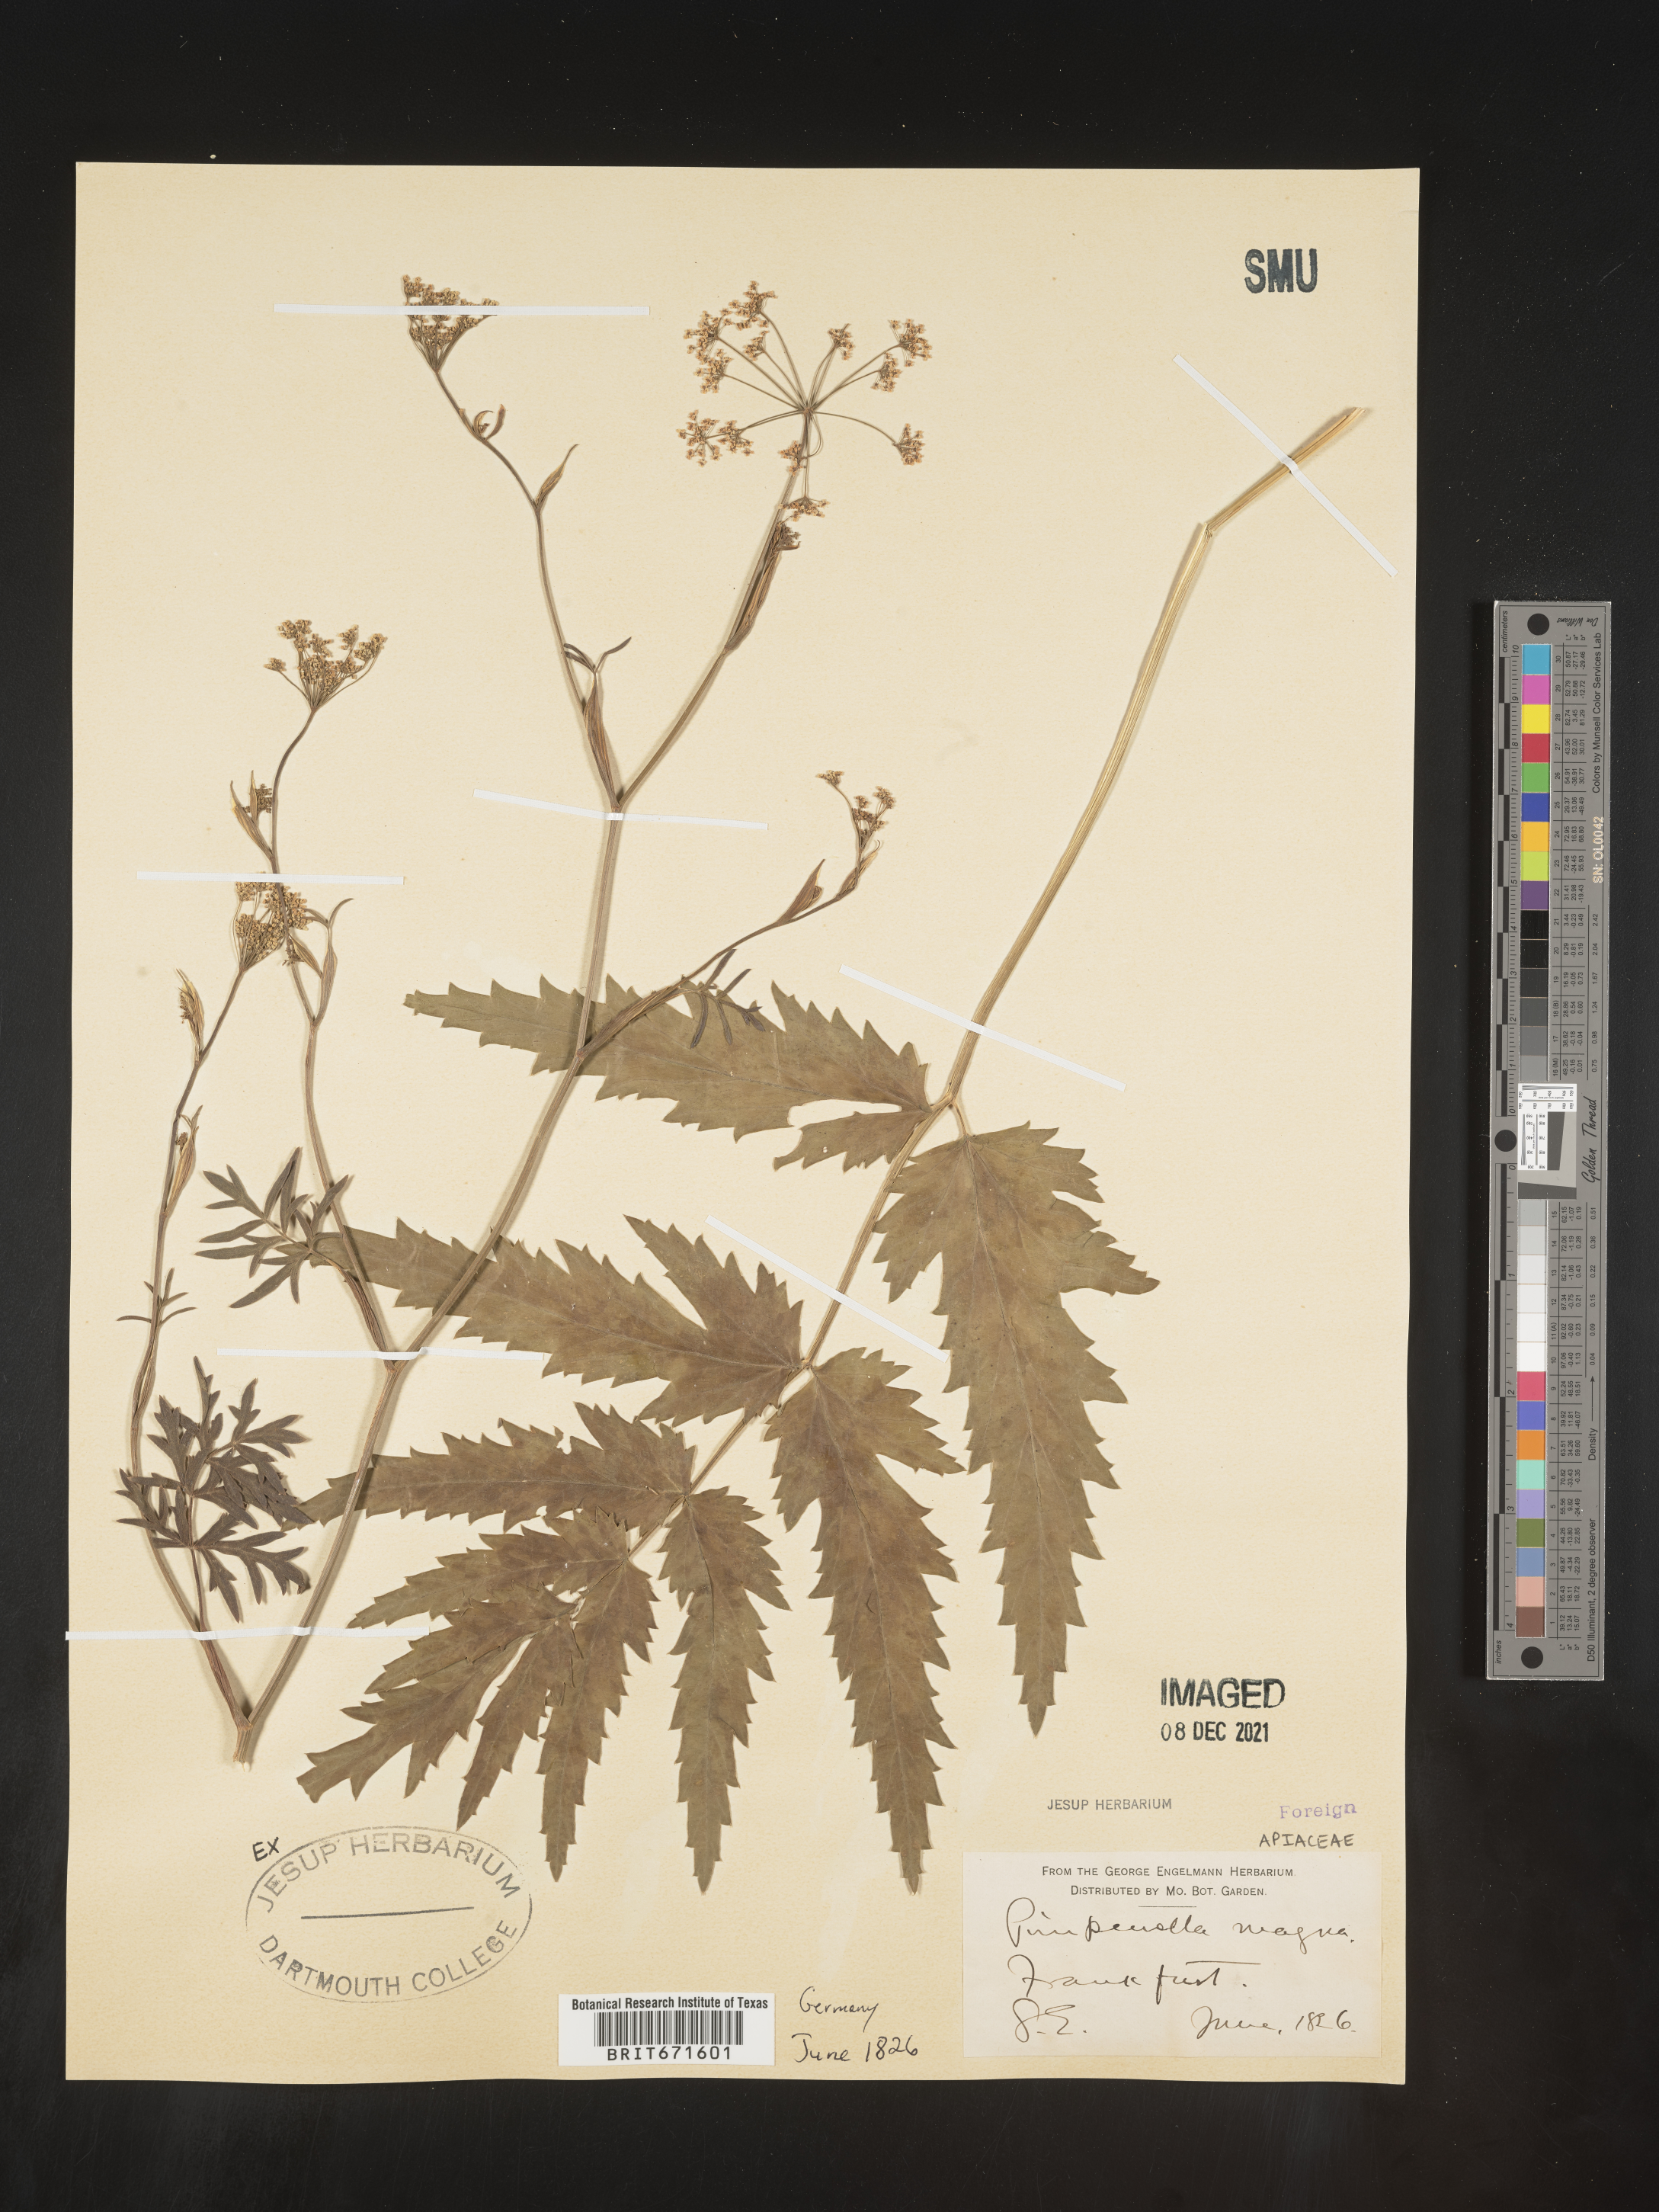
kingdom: Plantae
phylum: Tracheophyta
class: Magnoliopsida
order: Apiales
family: Apiaceae
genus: Pimpinella
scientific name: Pimpinella
